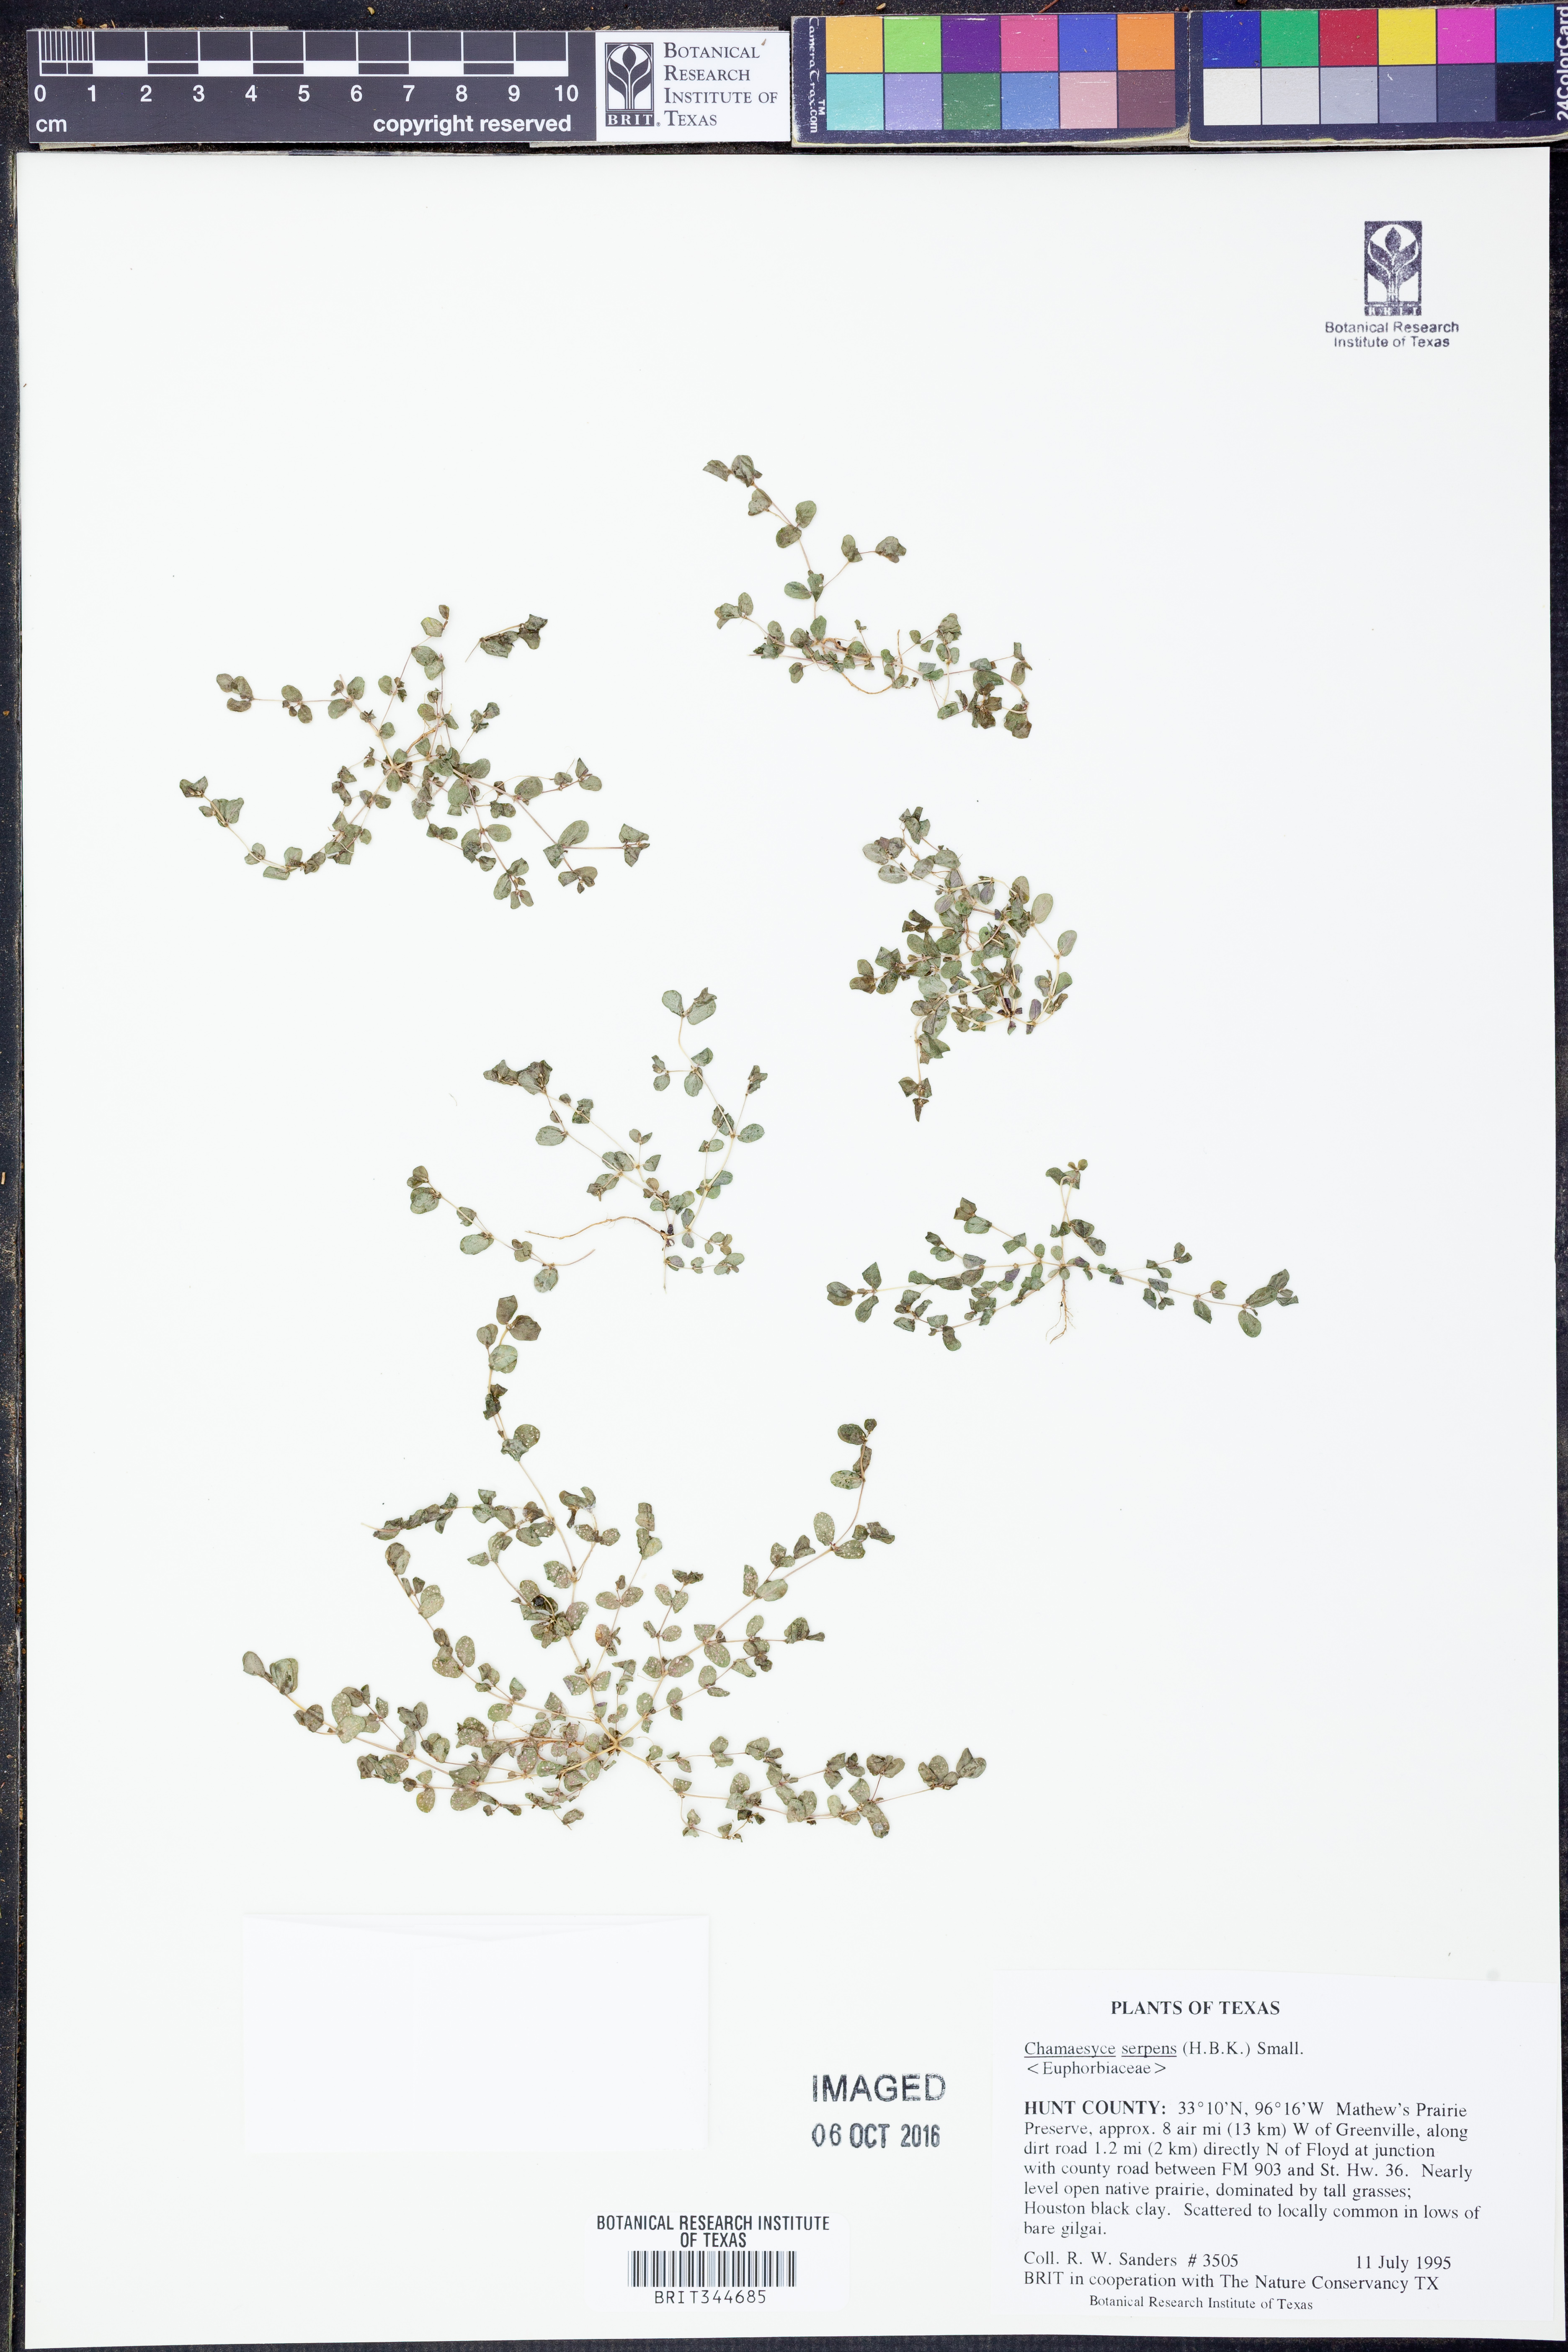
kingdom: Plantae
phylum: Tracheophyta
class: Magnoliopsida
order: Malpighiales
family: Euphorbiaceae
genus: Euphorbia
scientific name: Euphorbia serpens
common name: Matted sandmat
